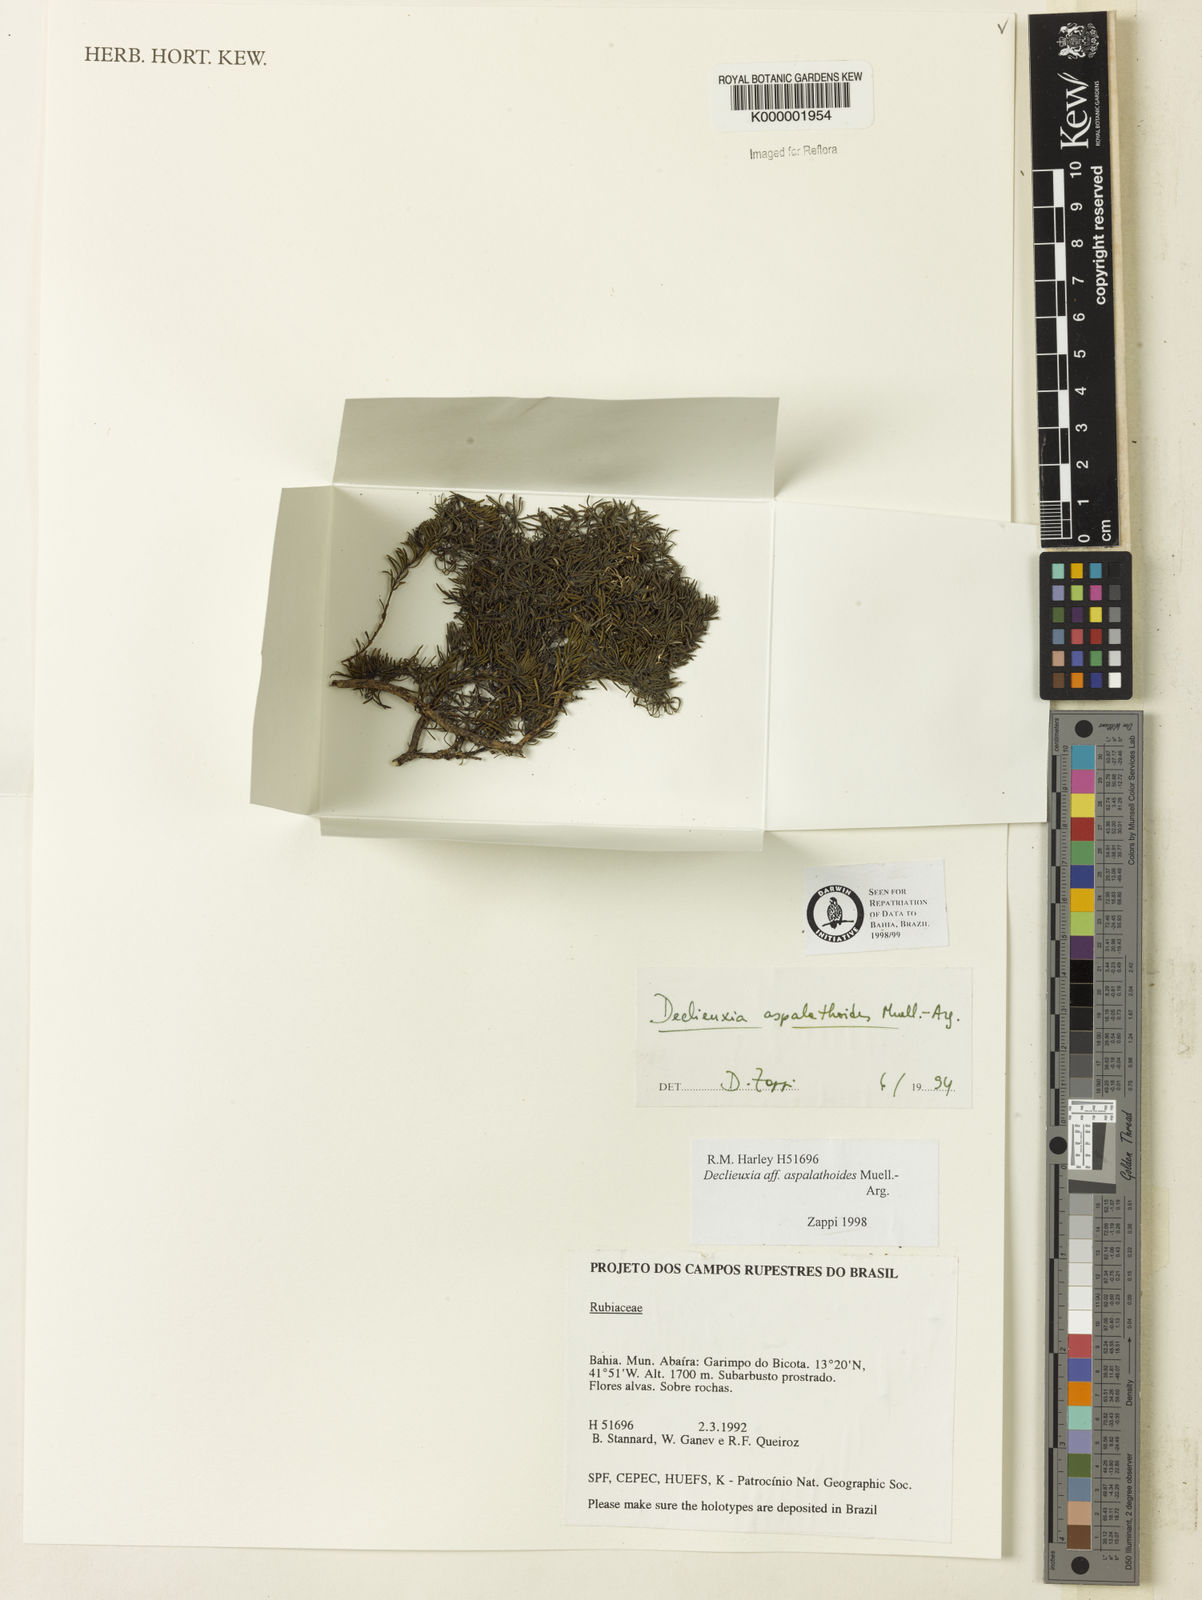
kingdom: Plantae
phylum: Tracheophyta
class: Magnoliopsida
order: Gentianales
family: Rubiaceae
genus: Declieuxia
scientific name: Declieuxia aspalathoides
